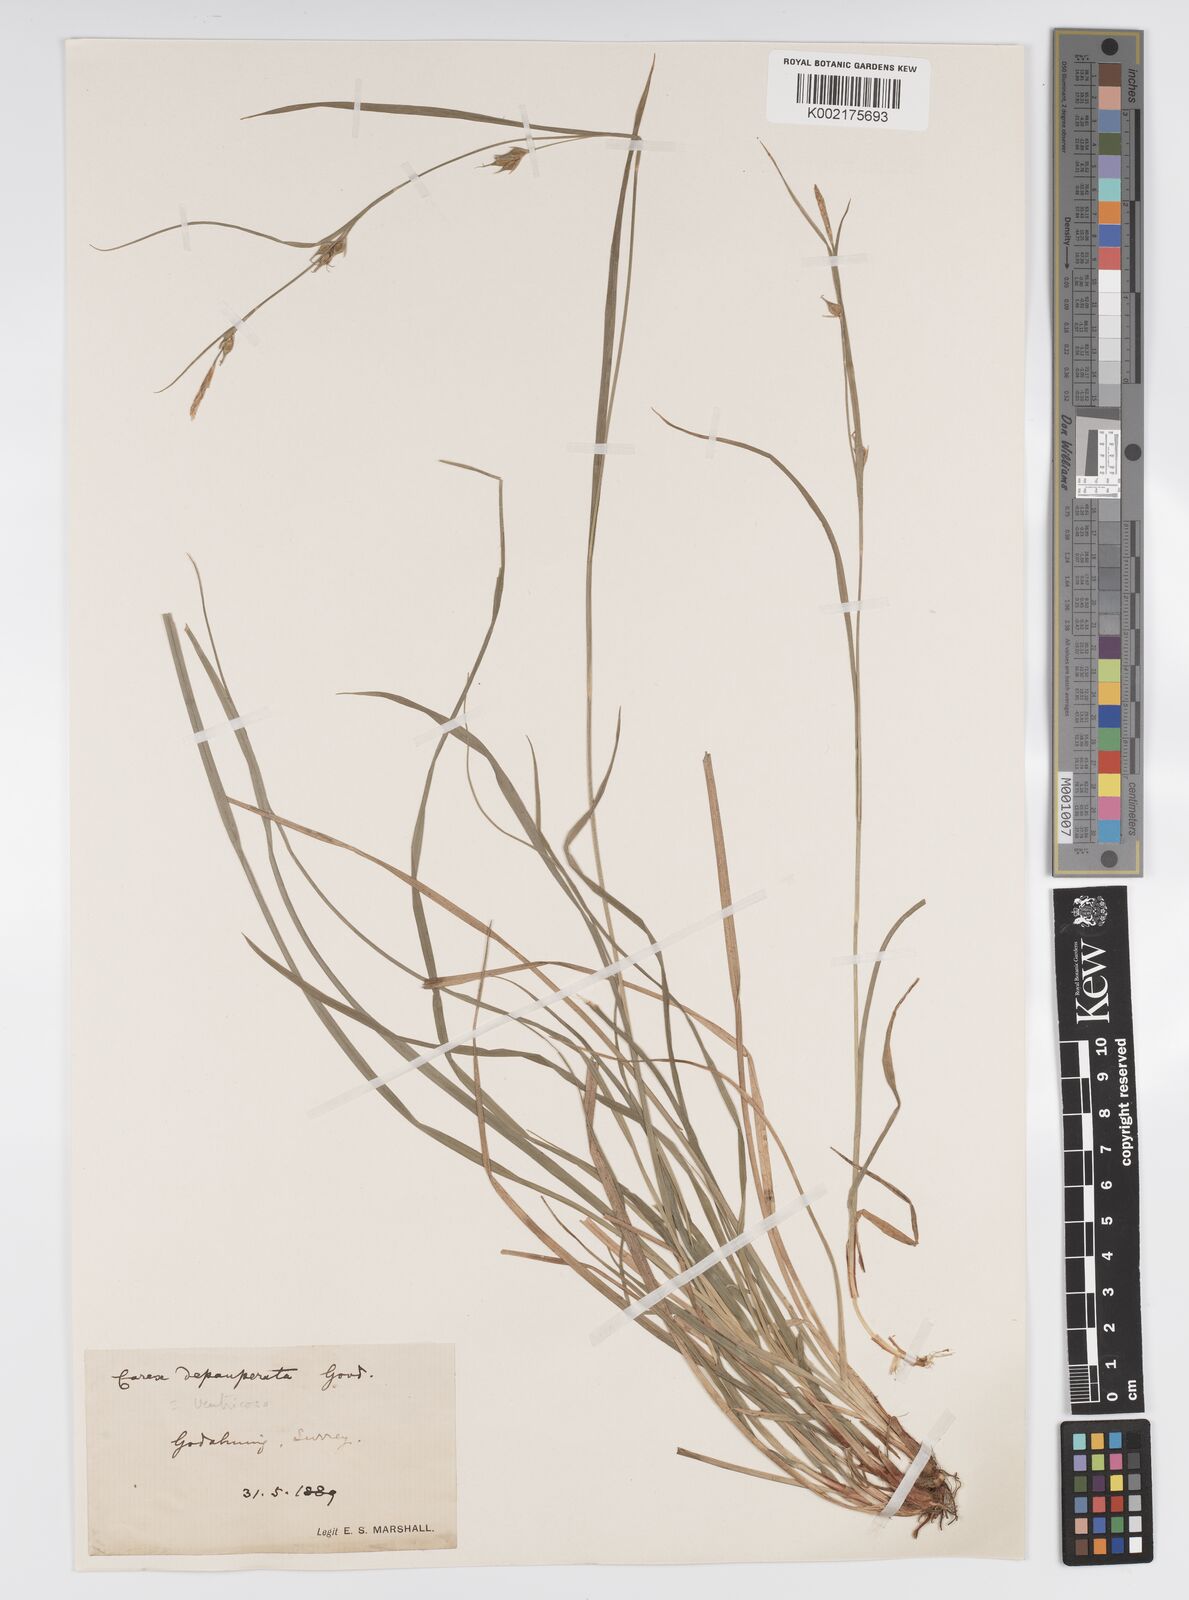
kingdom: Plantae
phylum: Tracheophyta
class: Liliopsida
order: Poales
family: Cyperaceae
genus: Carex
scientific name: Carex vaginata
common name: Sheathed sedge
